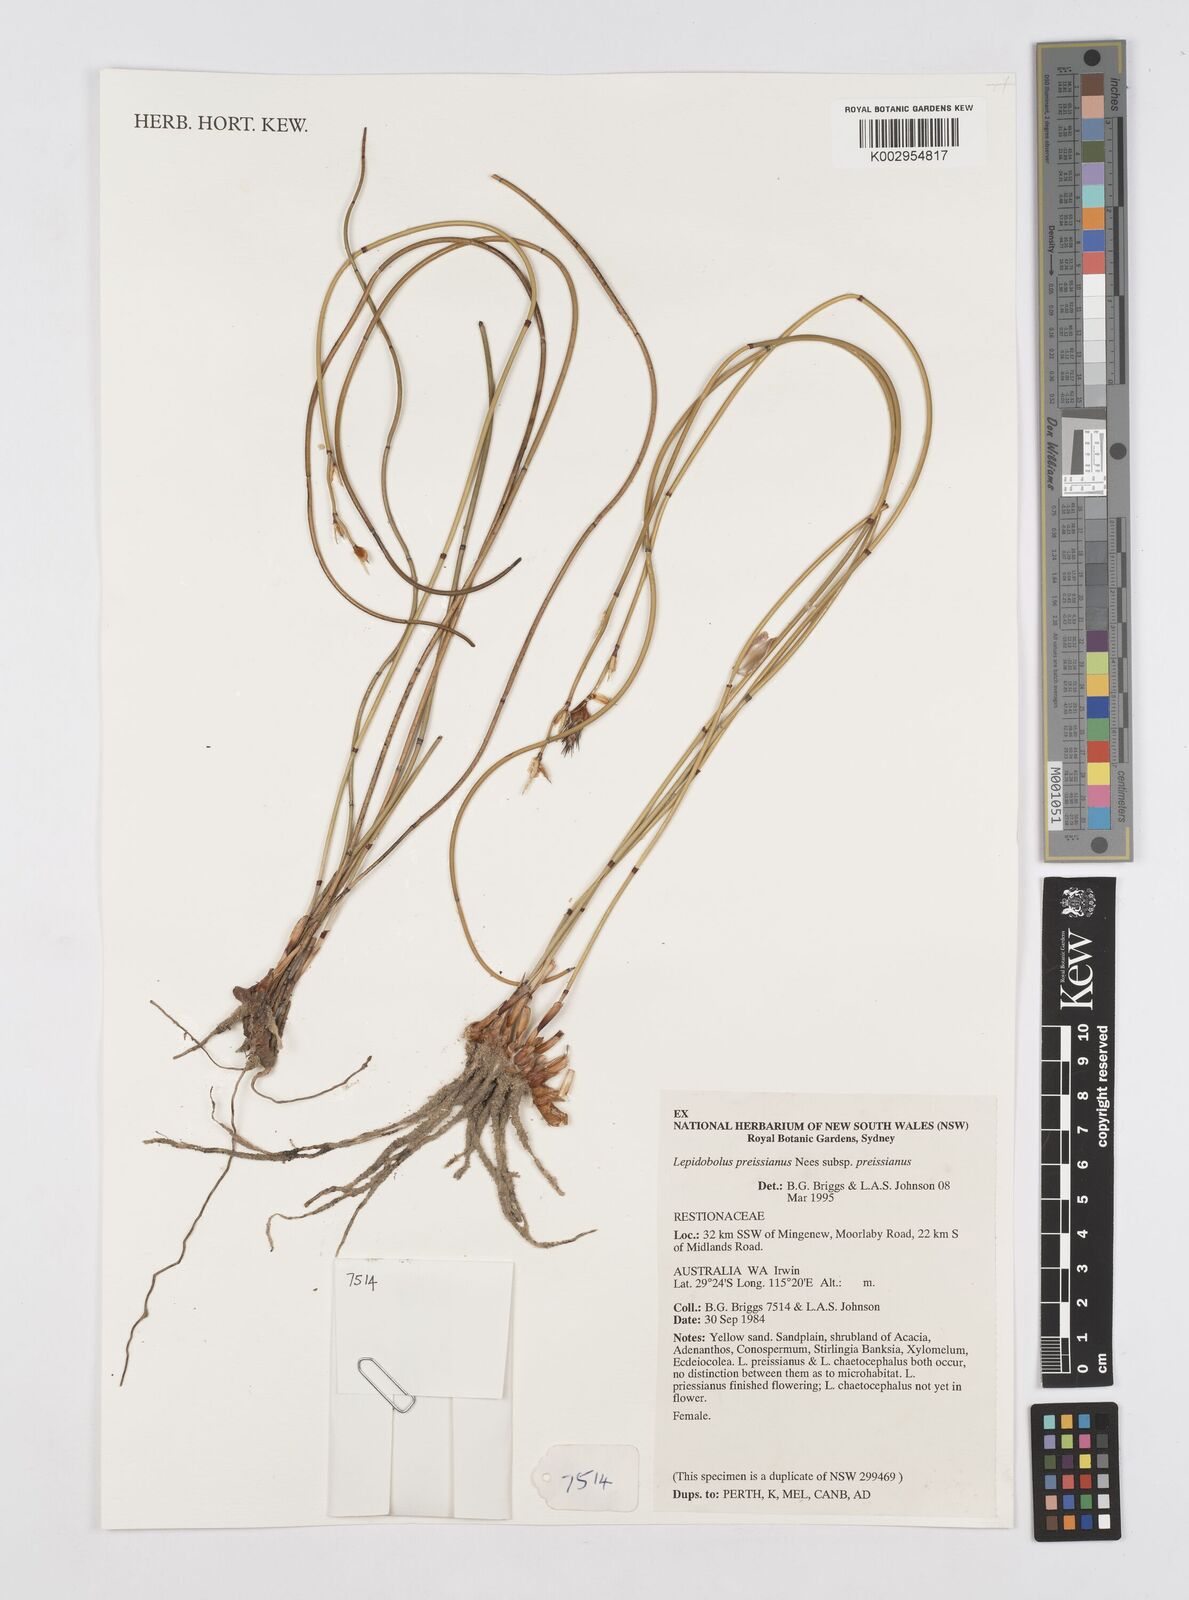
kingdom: Plantae
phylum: Tracheophyta
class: Liliopsida
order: Poales
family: Restionaceae
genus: Lepidobolus
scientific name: Lepidobolus preissianus
